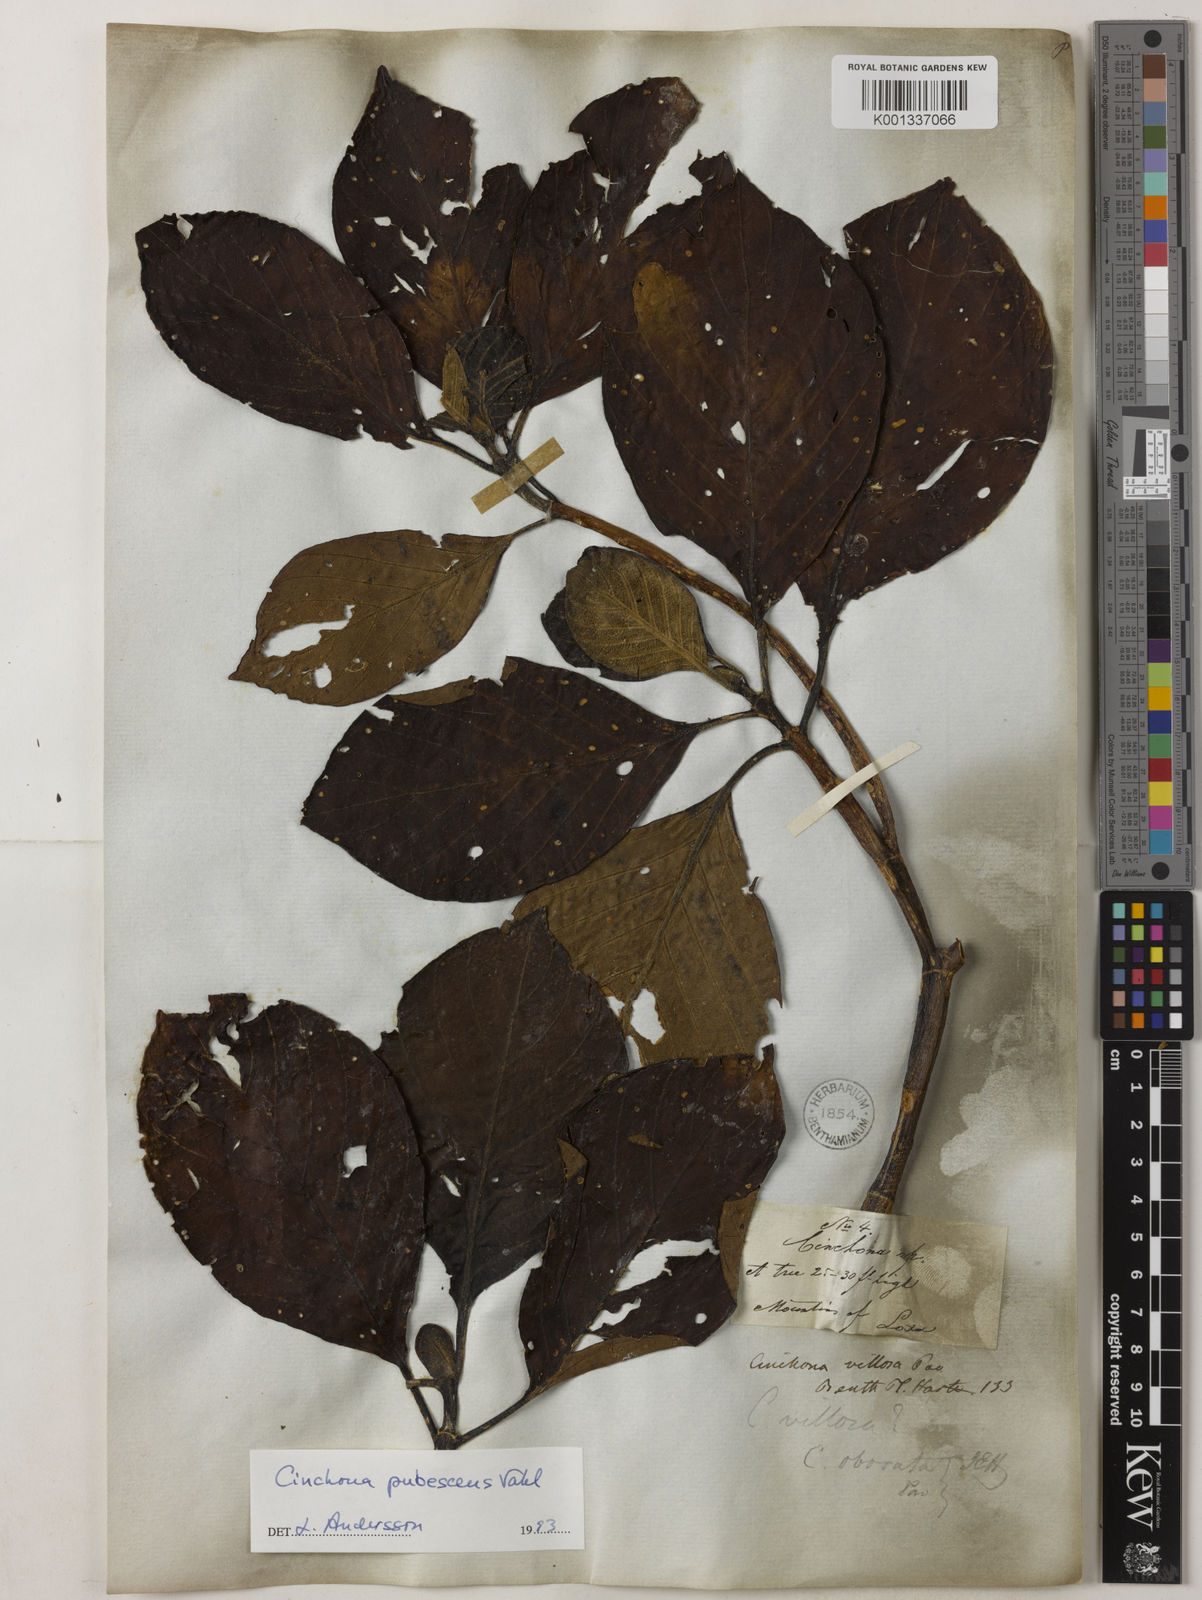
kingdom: Plantae
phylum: Tracheophyta
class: Magnoliopsida
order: Gentianales
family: Rubiaceae
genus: Cinchona
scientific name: Cinchona pubescens
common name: Quinine
